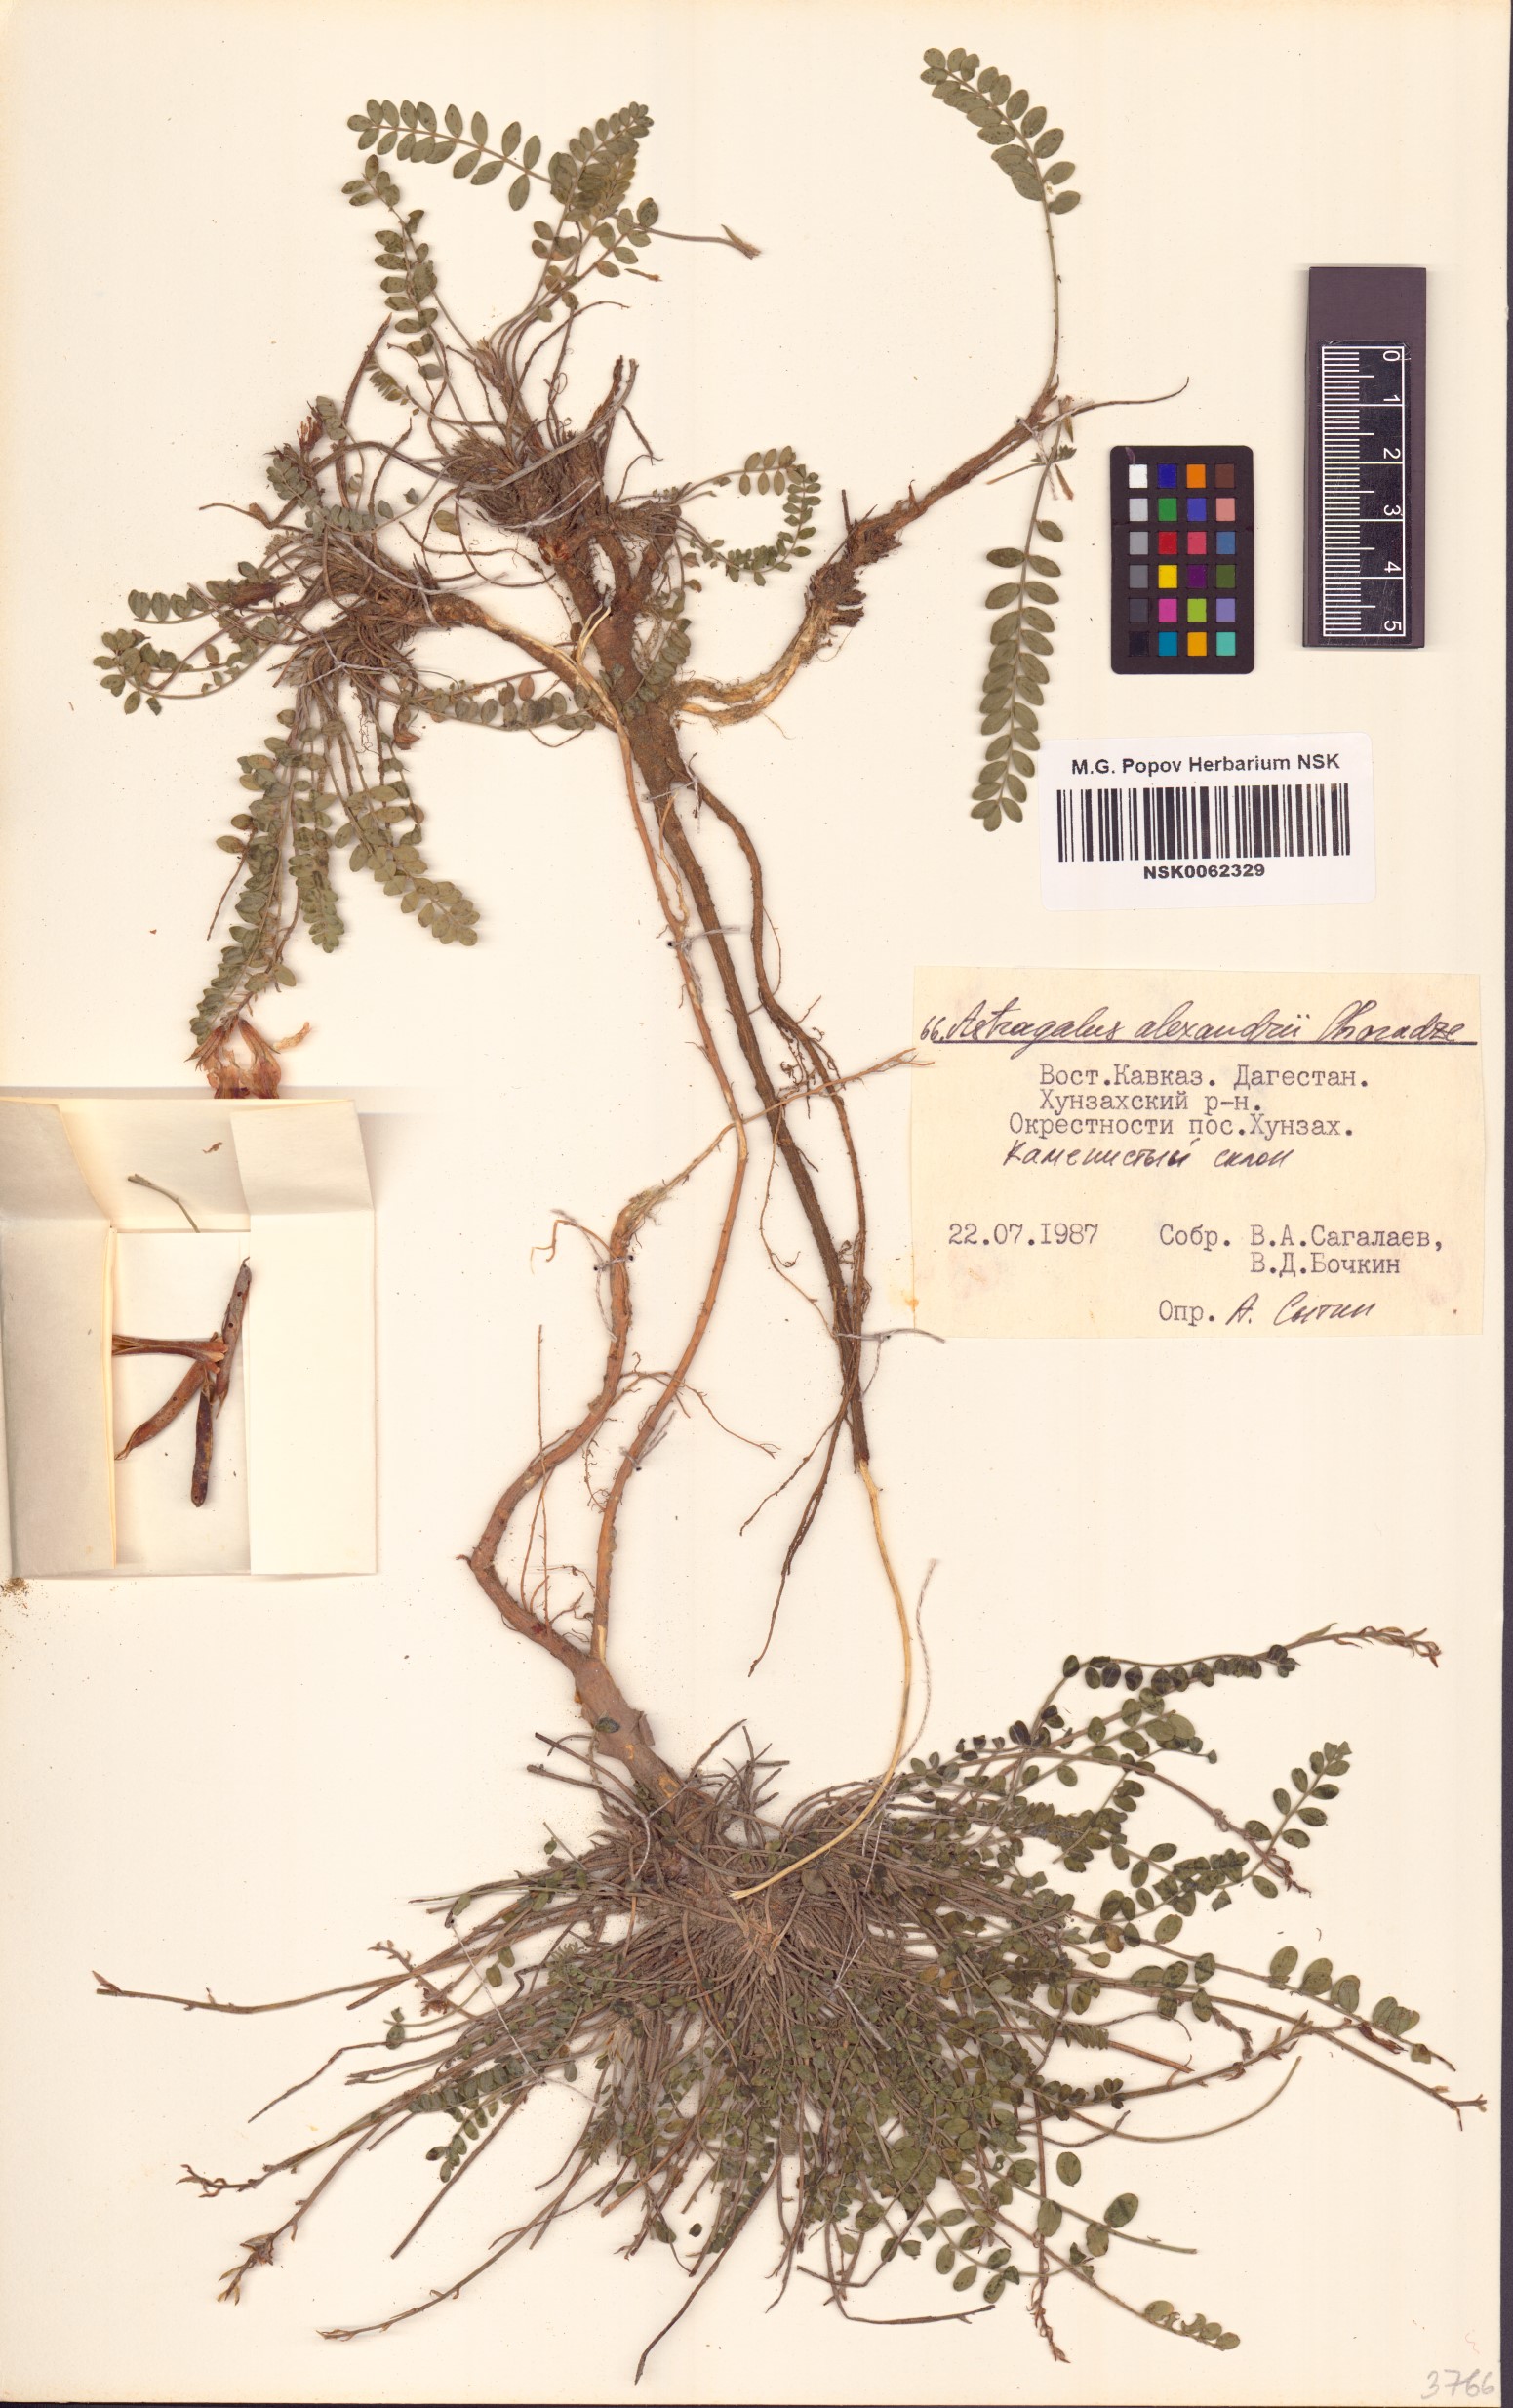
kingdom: Plantae
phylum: Tracheophyta
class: Magnoliopsida
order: Fabales
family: Fabaceae
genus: Astragalus
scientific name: Astragalus buschiorum
